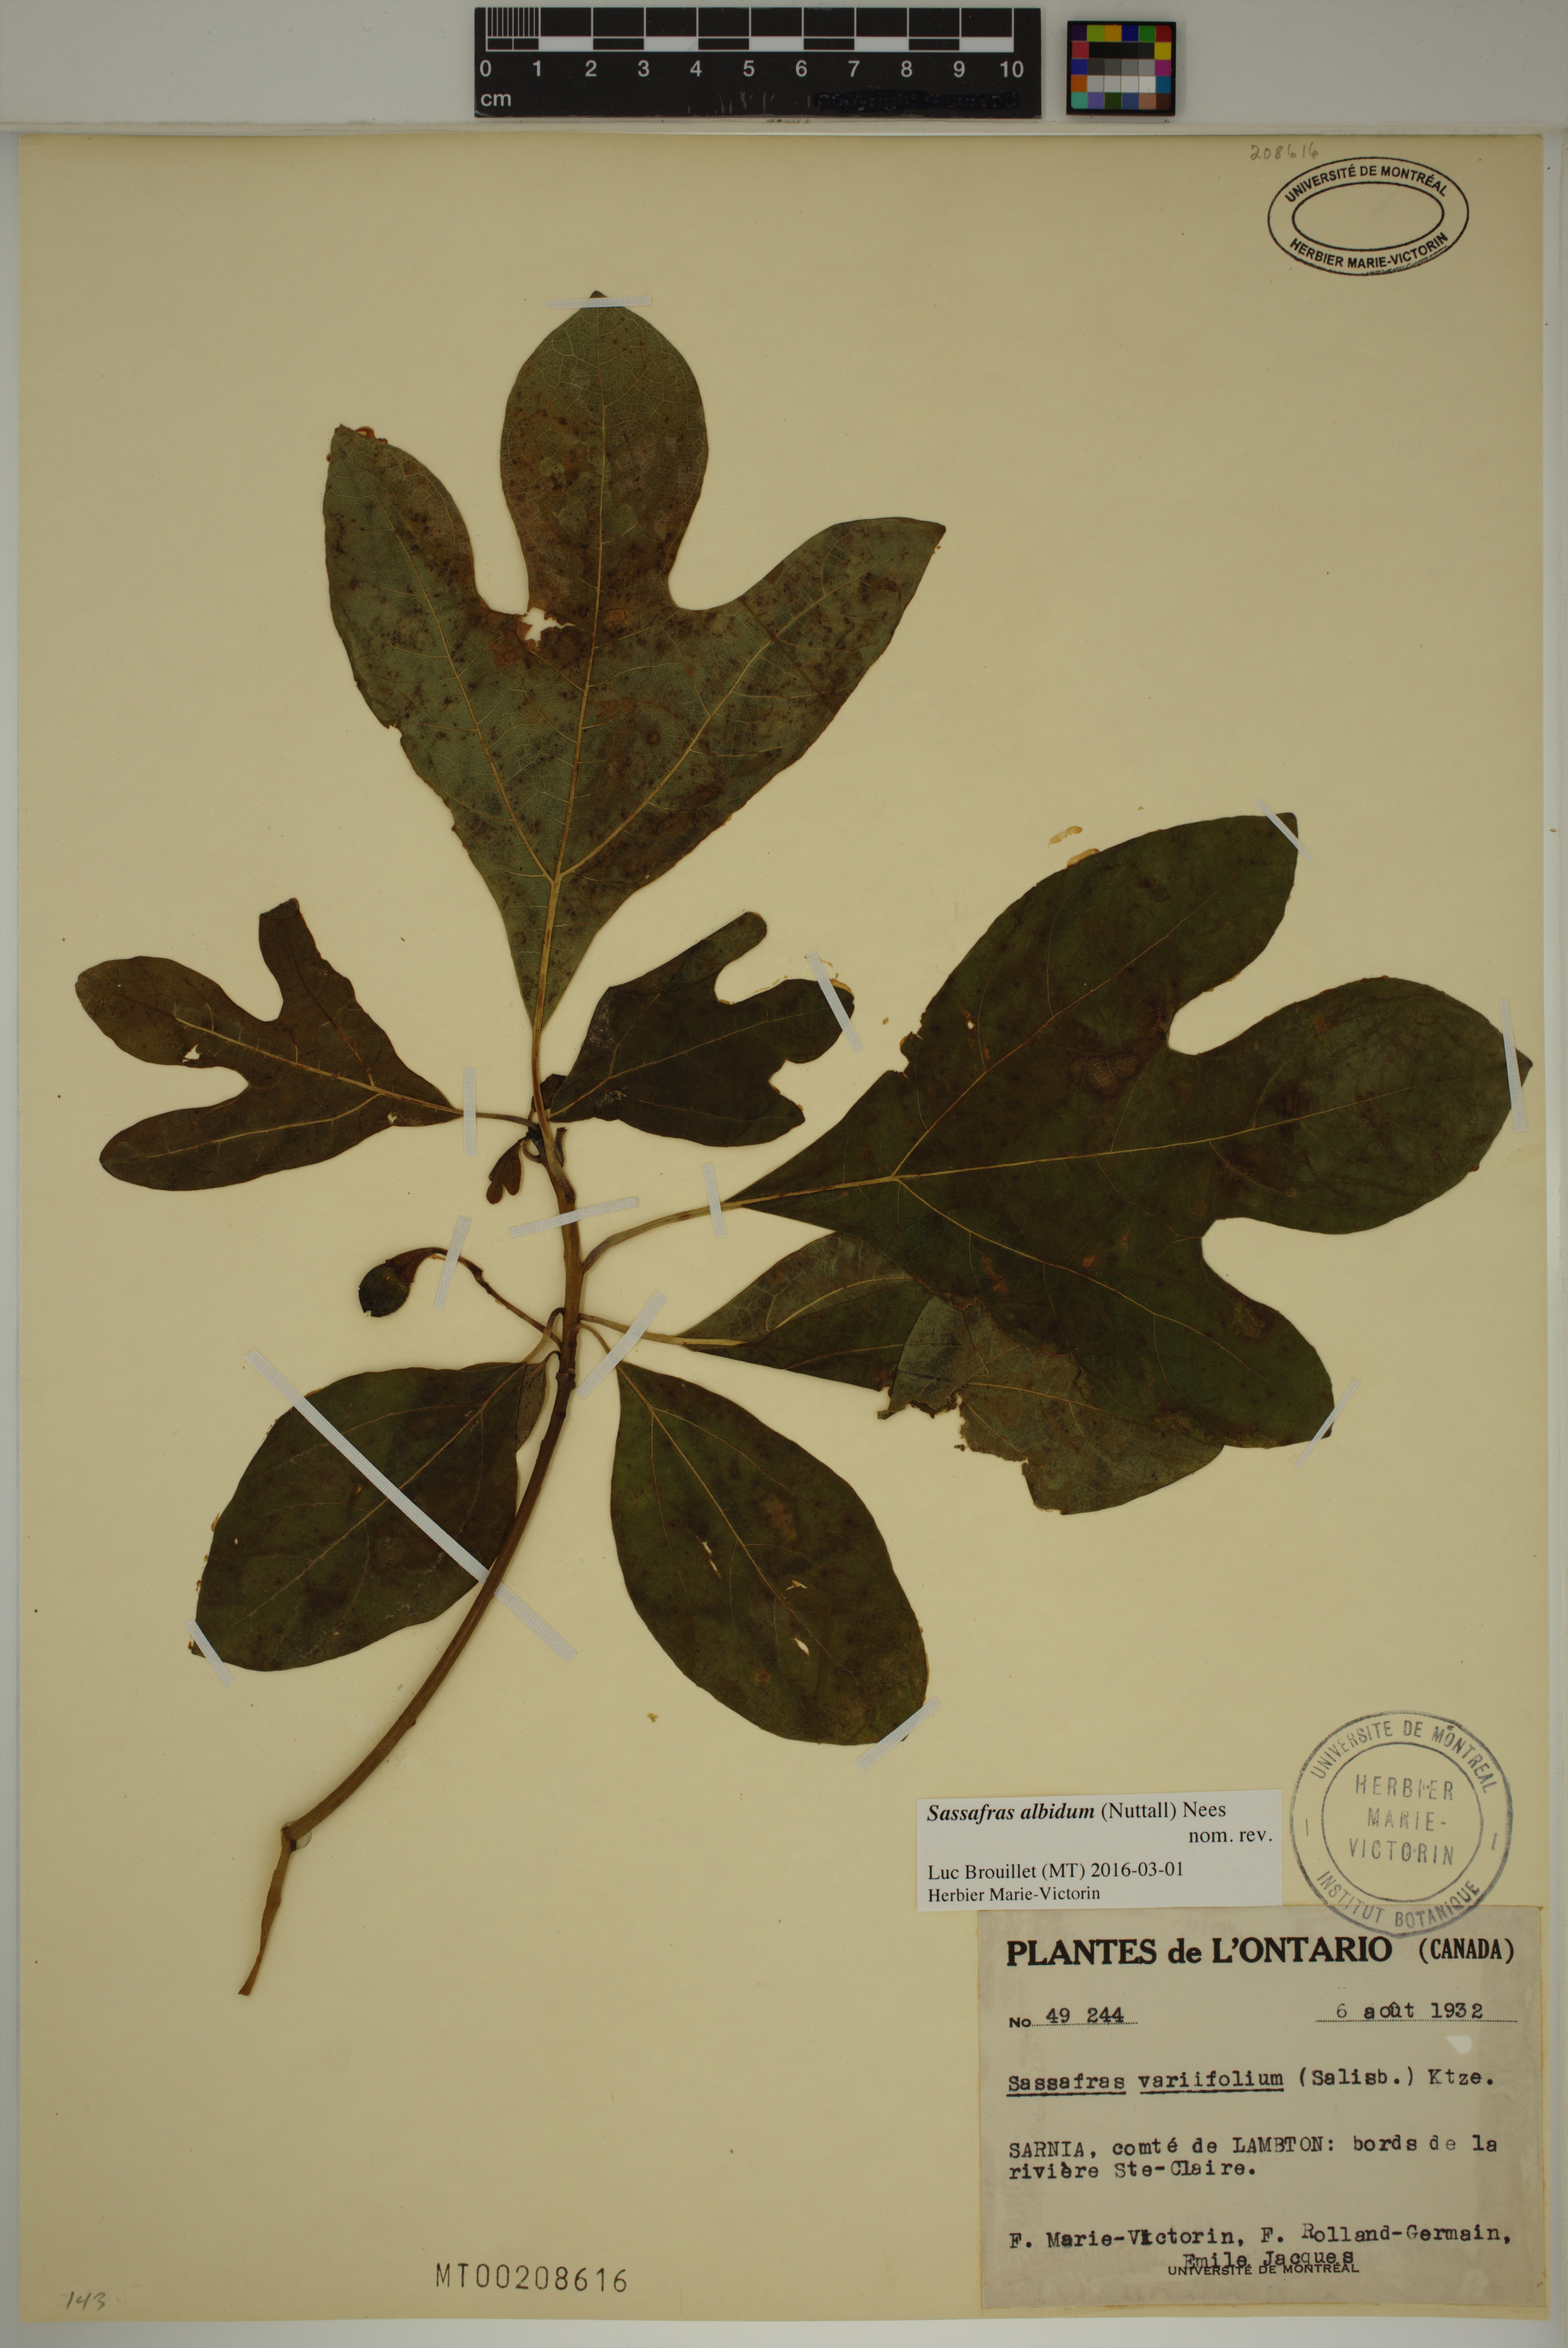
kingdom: Plantae
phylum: Tracheophyta
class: Magnoliopsida
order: Laurales
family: Lauraceae
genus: Sassafras
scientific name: Sassafras albidum
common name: Sassafras
